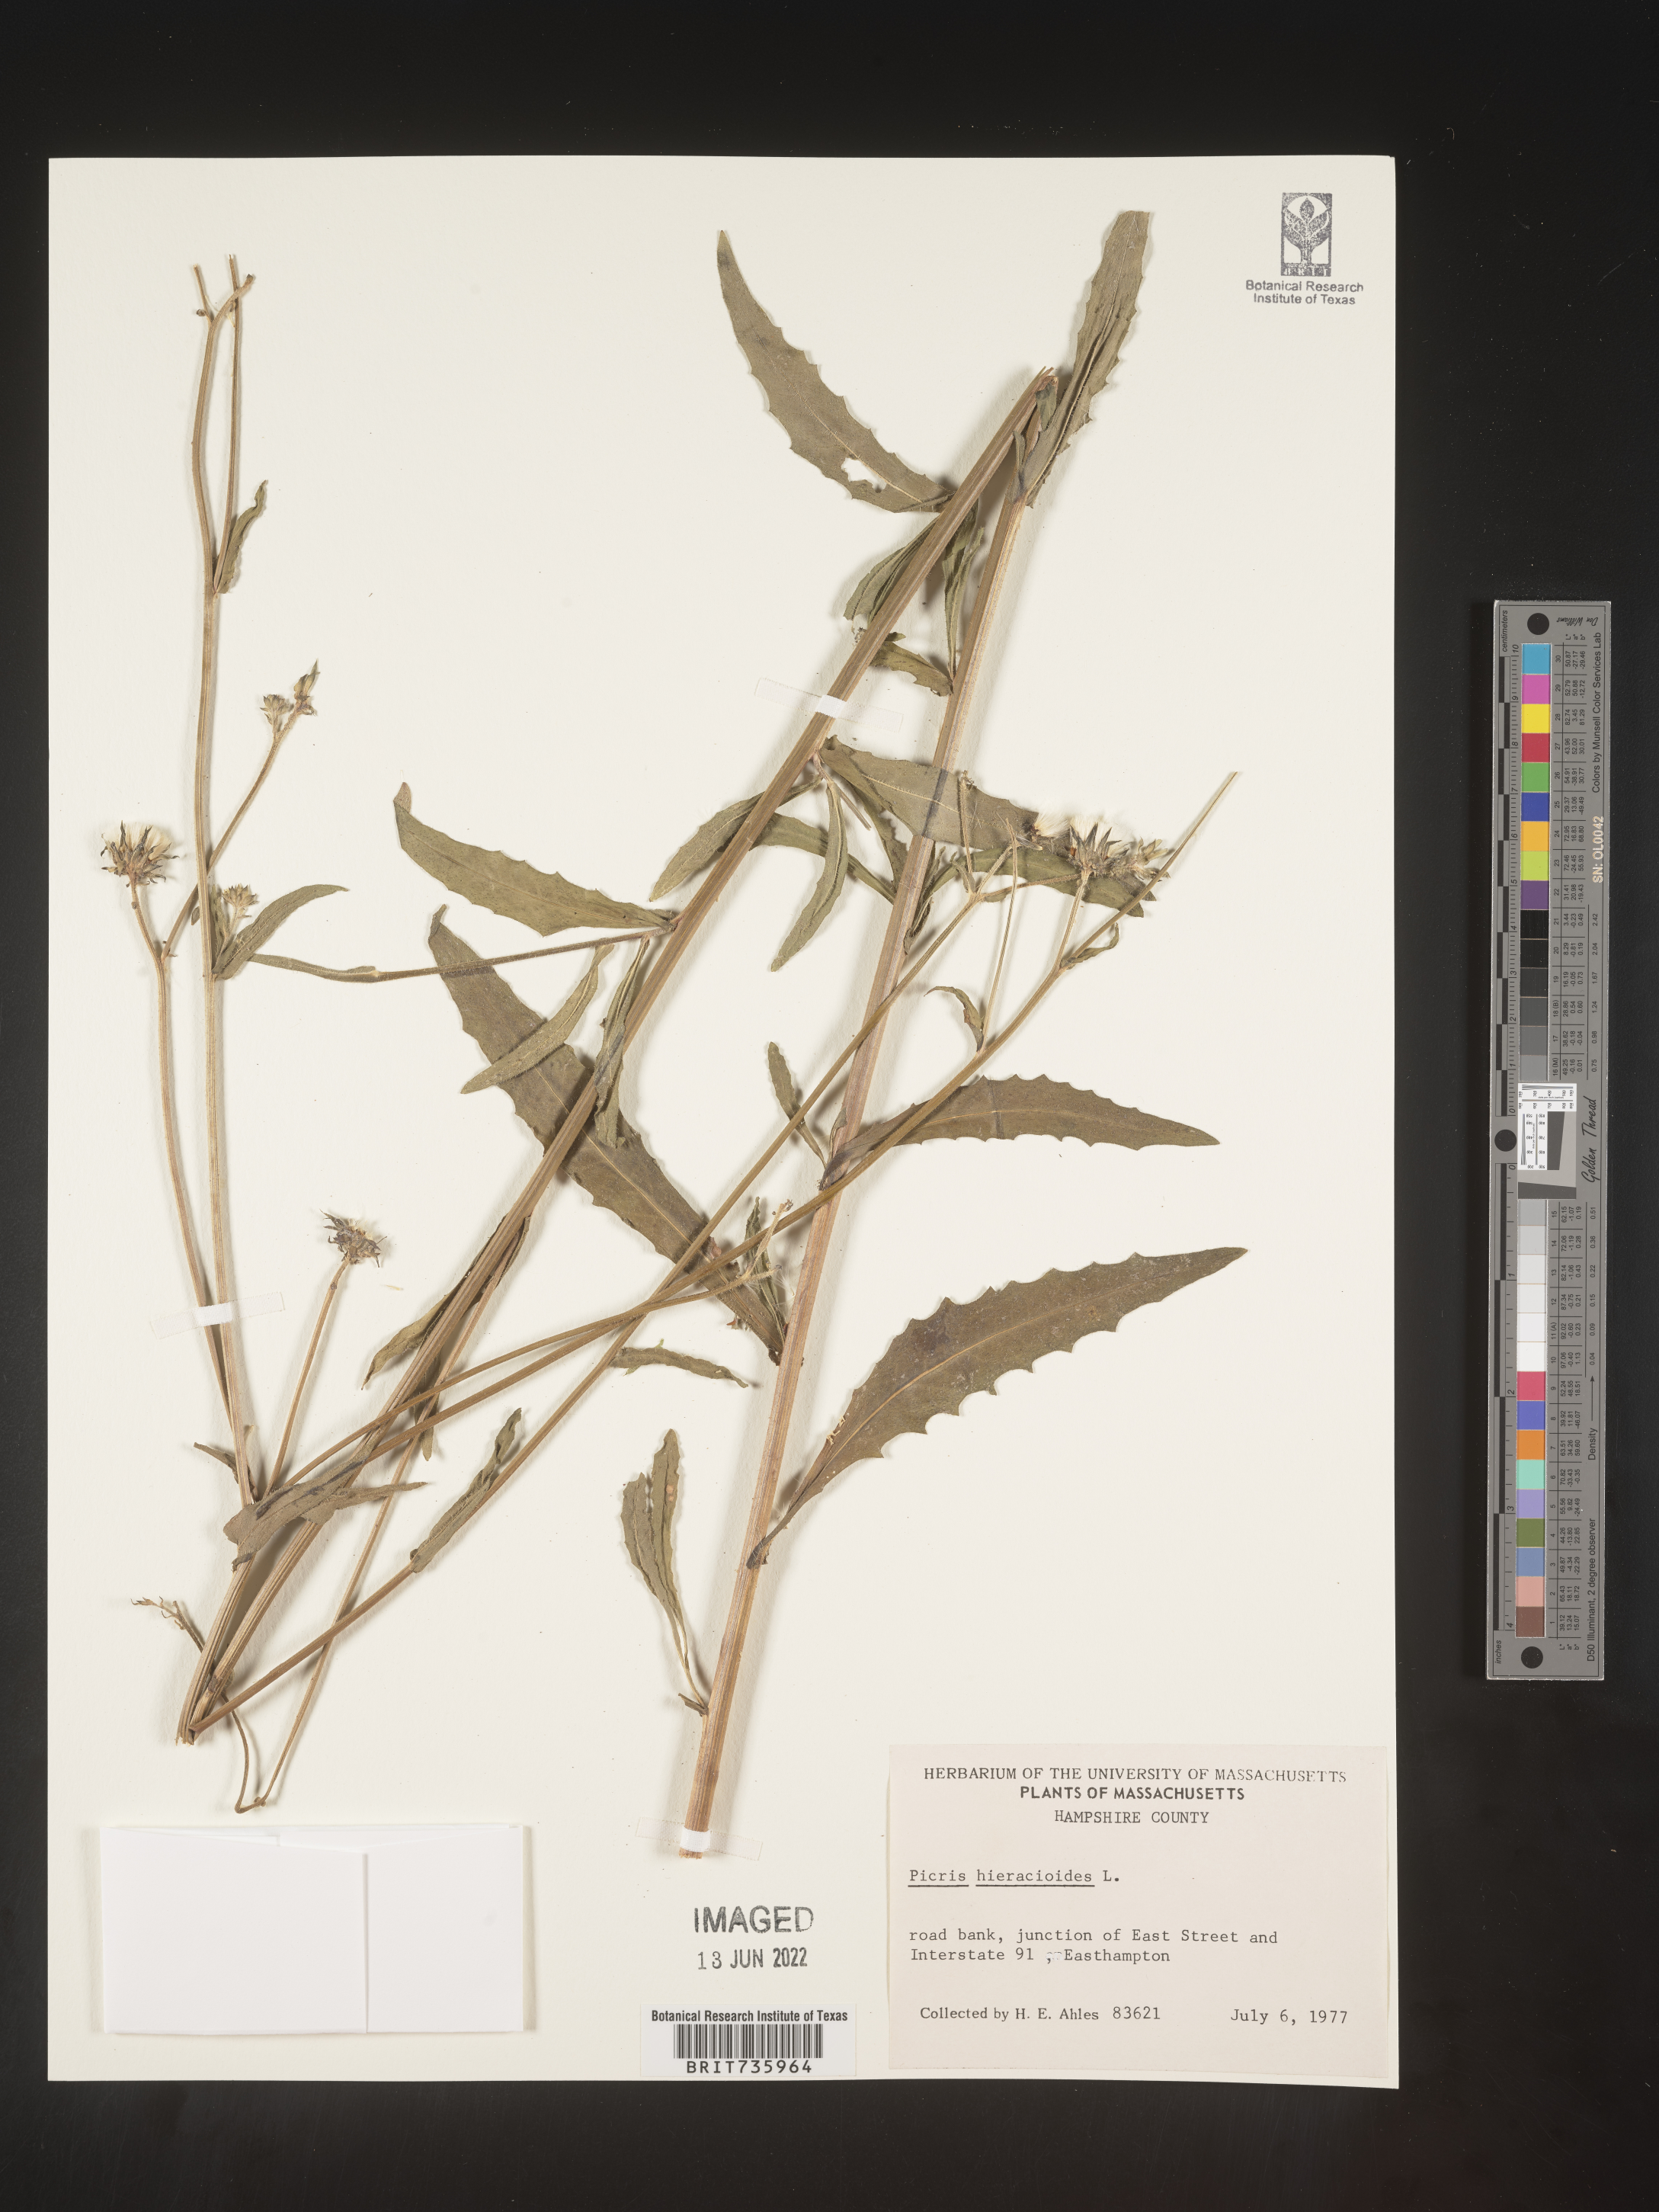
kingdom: Plantae
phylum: Tracheophyta
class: Magnoliopsida
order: Asterales
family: Asteraceae
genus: Picris
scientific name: Picris hieracioides
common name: Hawkweed oxtongue
